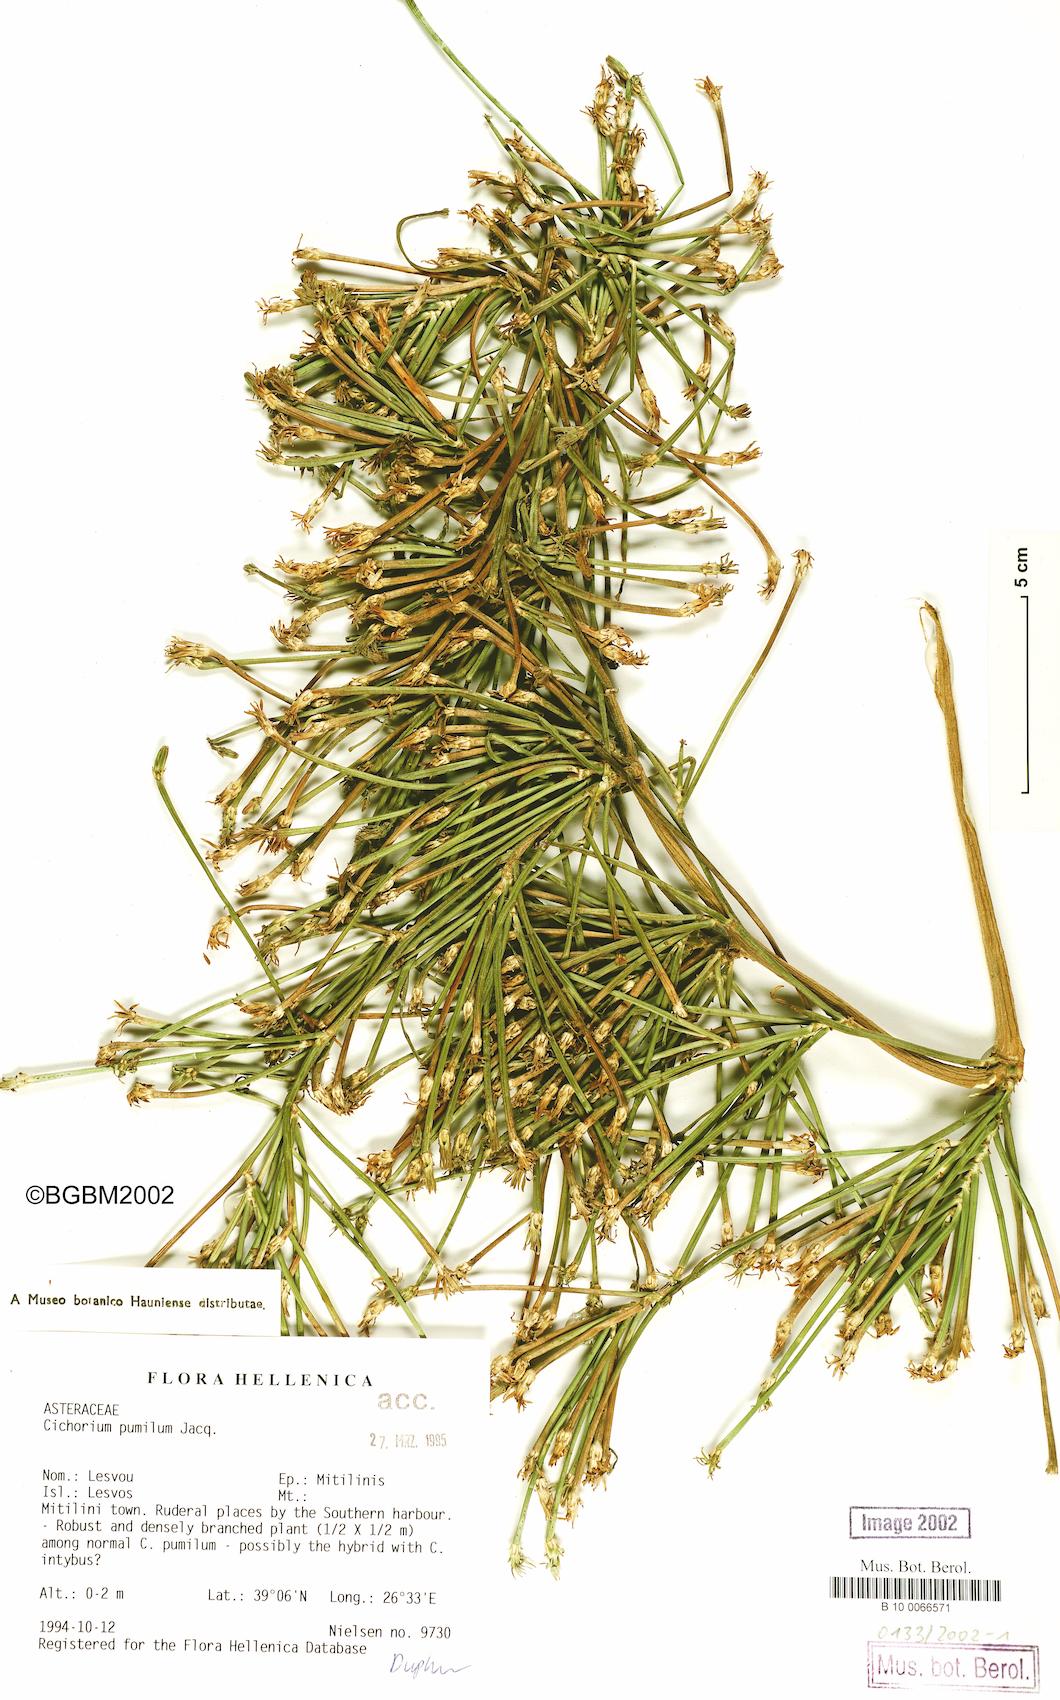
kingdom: Plantae
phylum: Tracheophyta
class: Magnoliopsida
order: Asterales
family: Asteraceae
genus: Cichorium
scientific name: Cichorium pumilum
